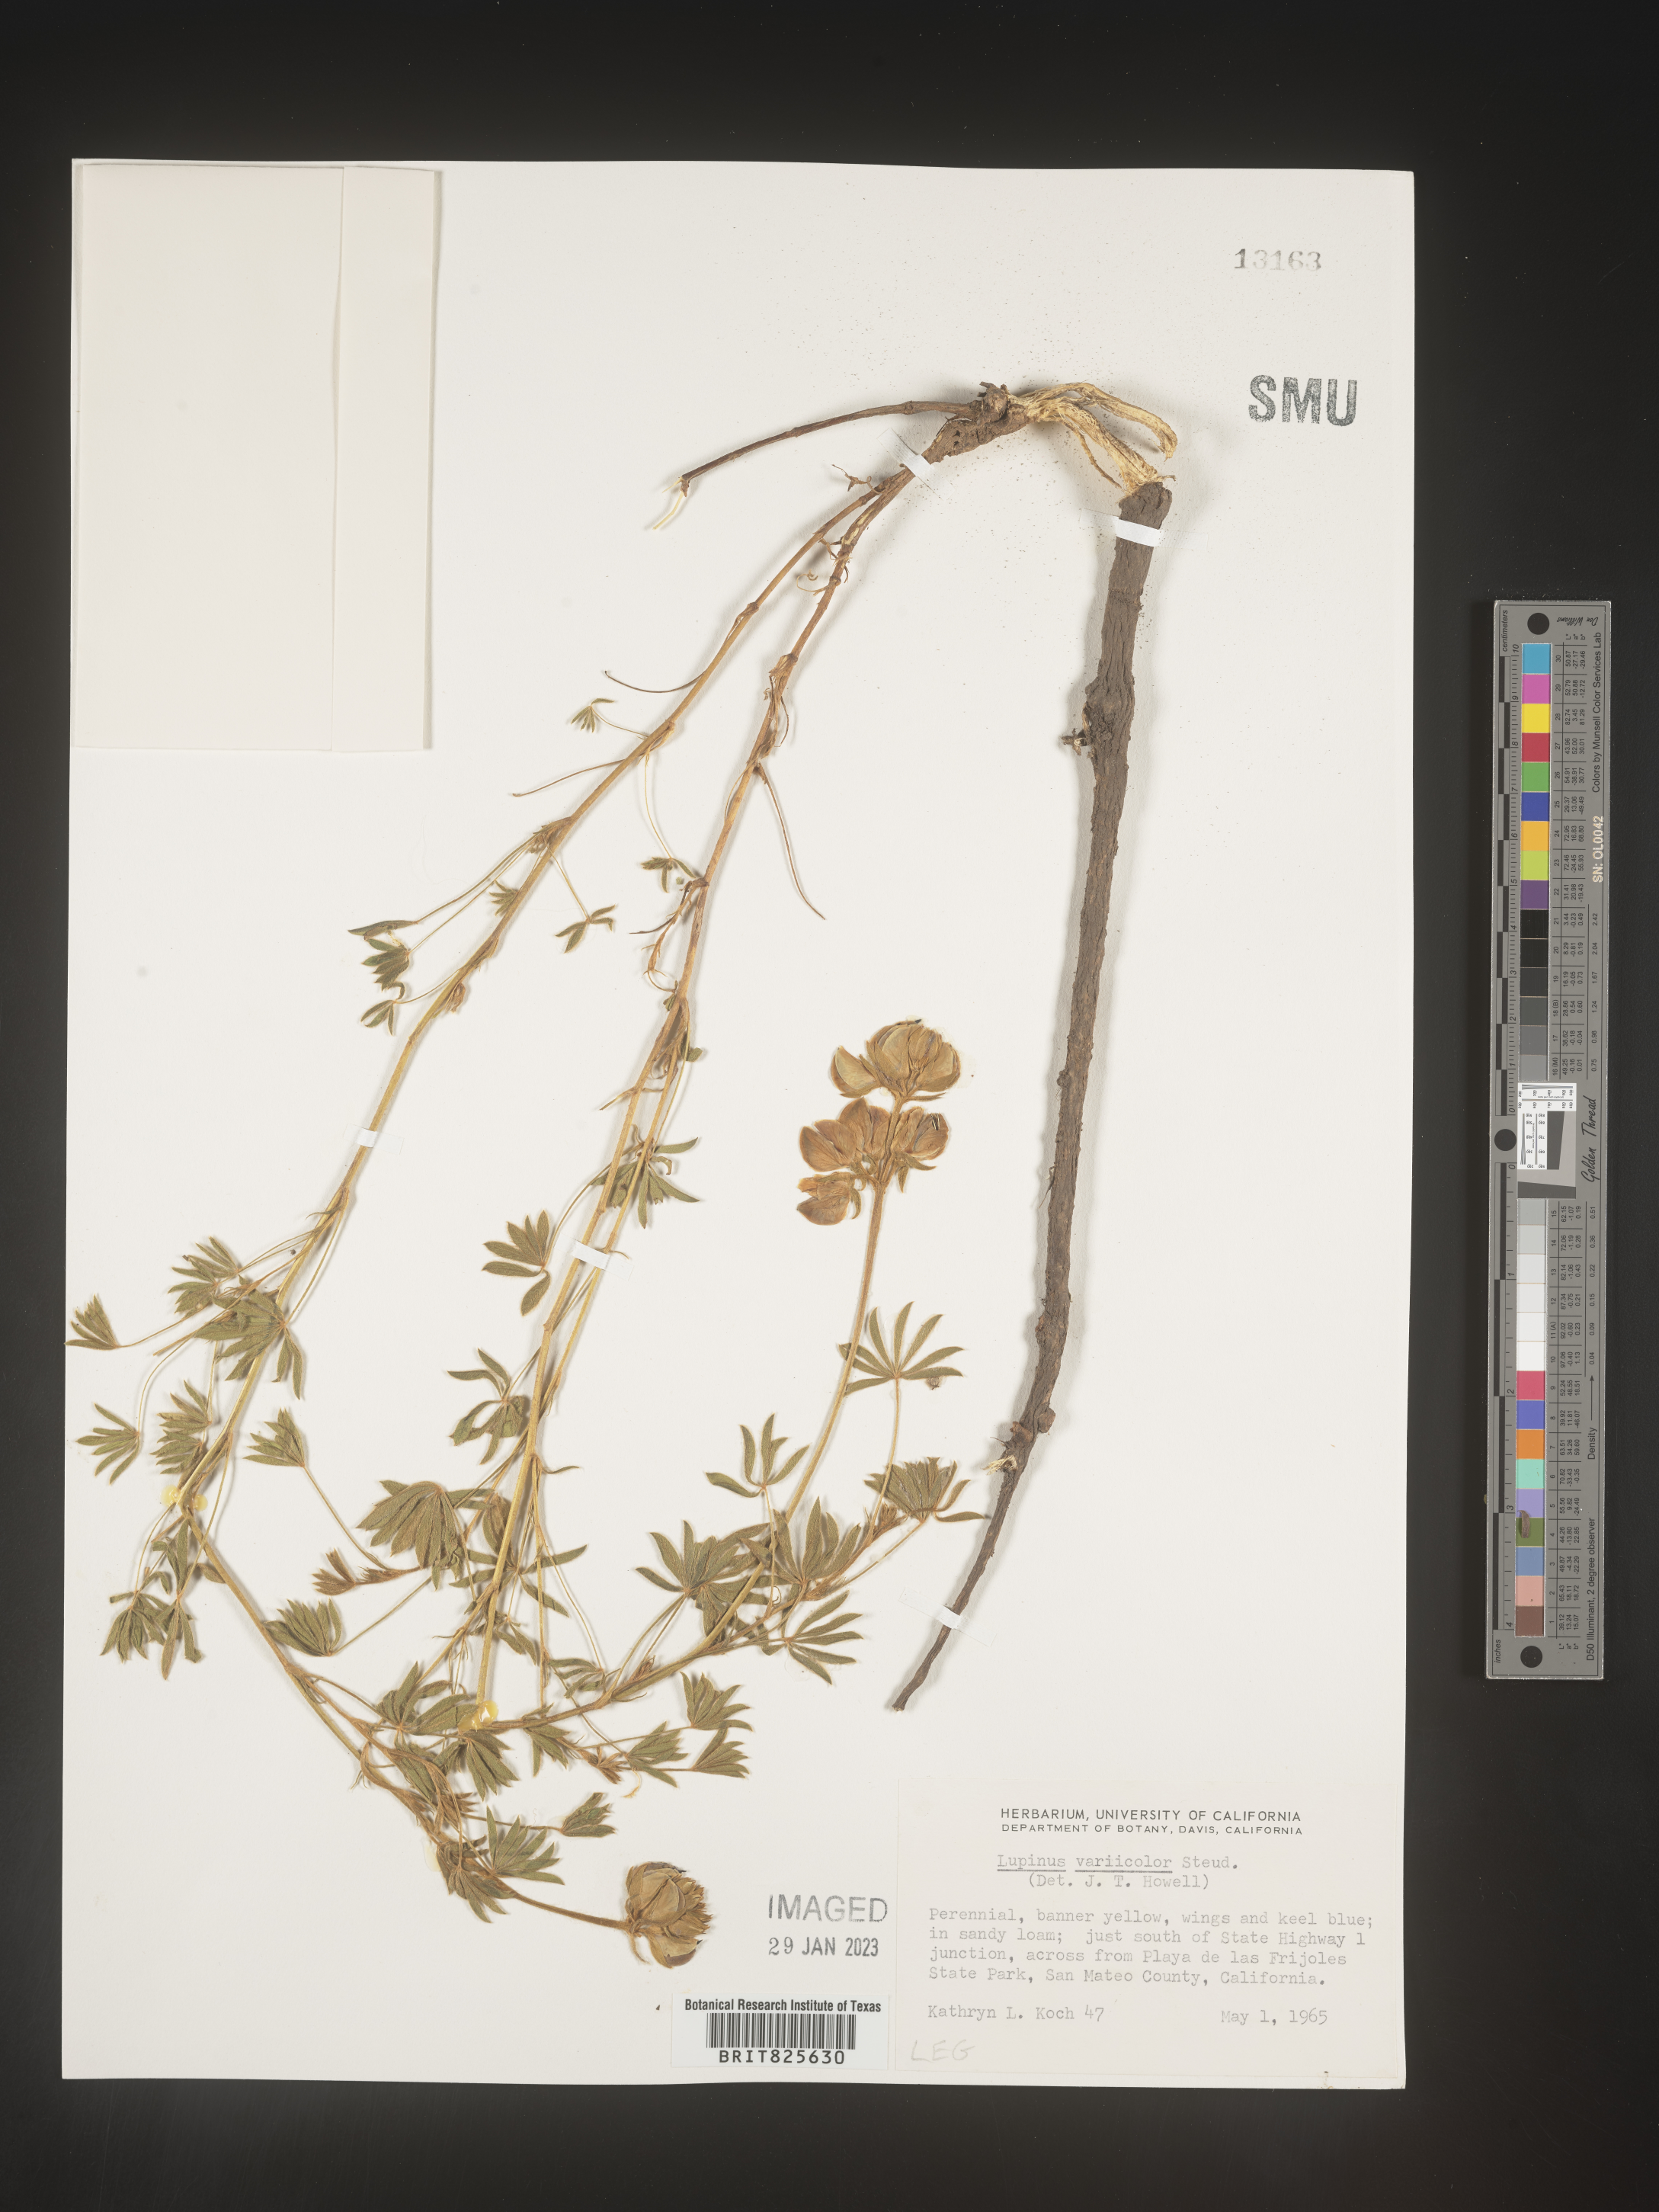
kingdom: Plantae
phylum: Tracheophyta
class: Magnoliopsida
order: Fabales
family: Fabaceae
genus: Lupinus
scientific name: Lupinus
